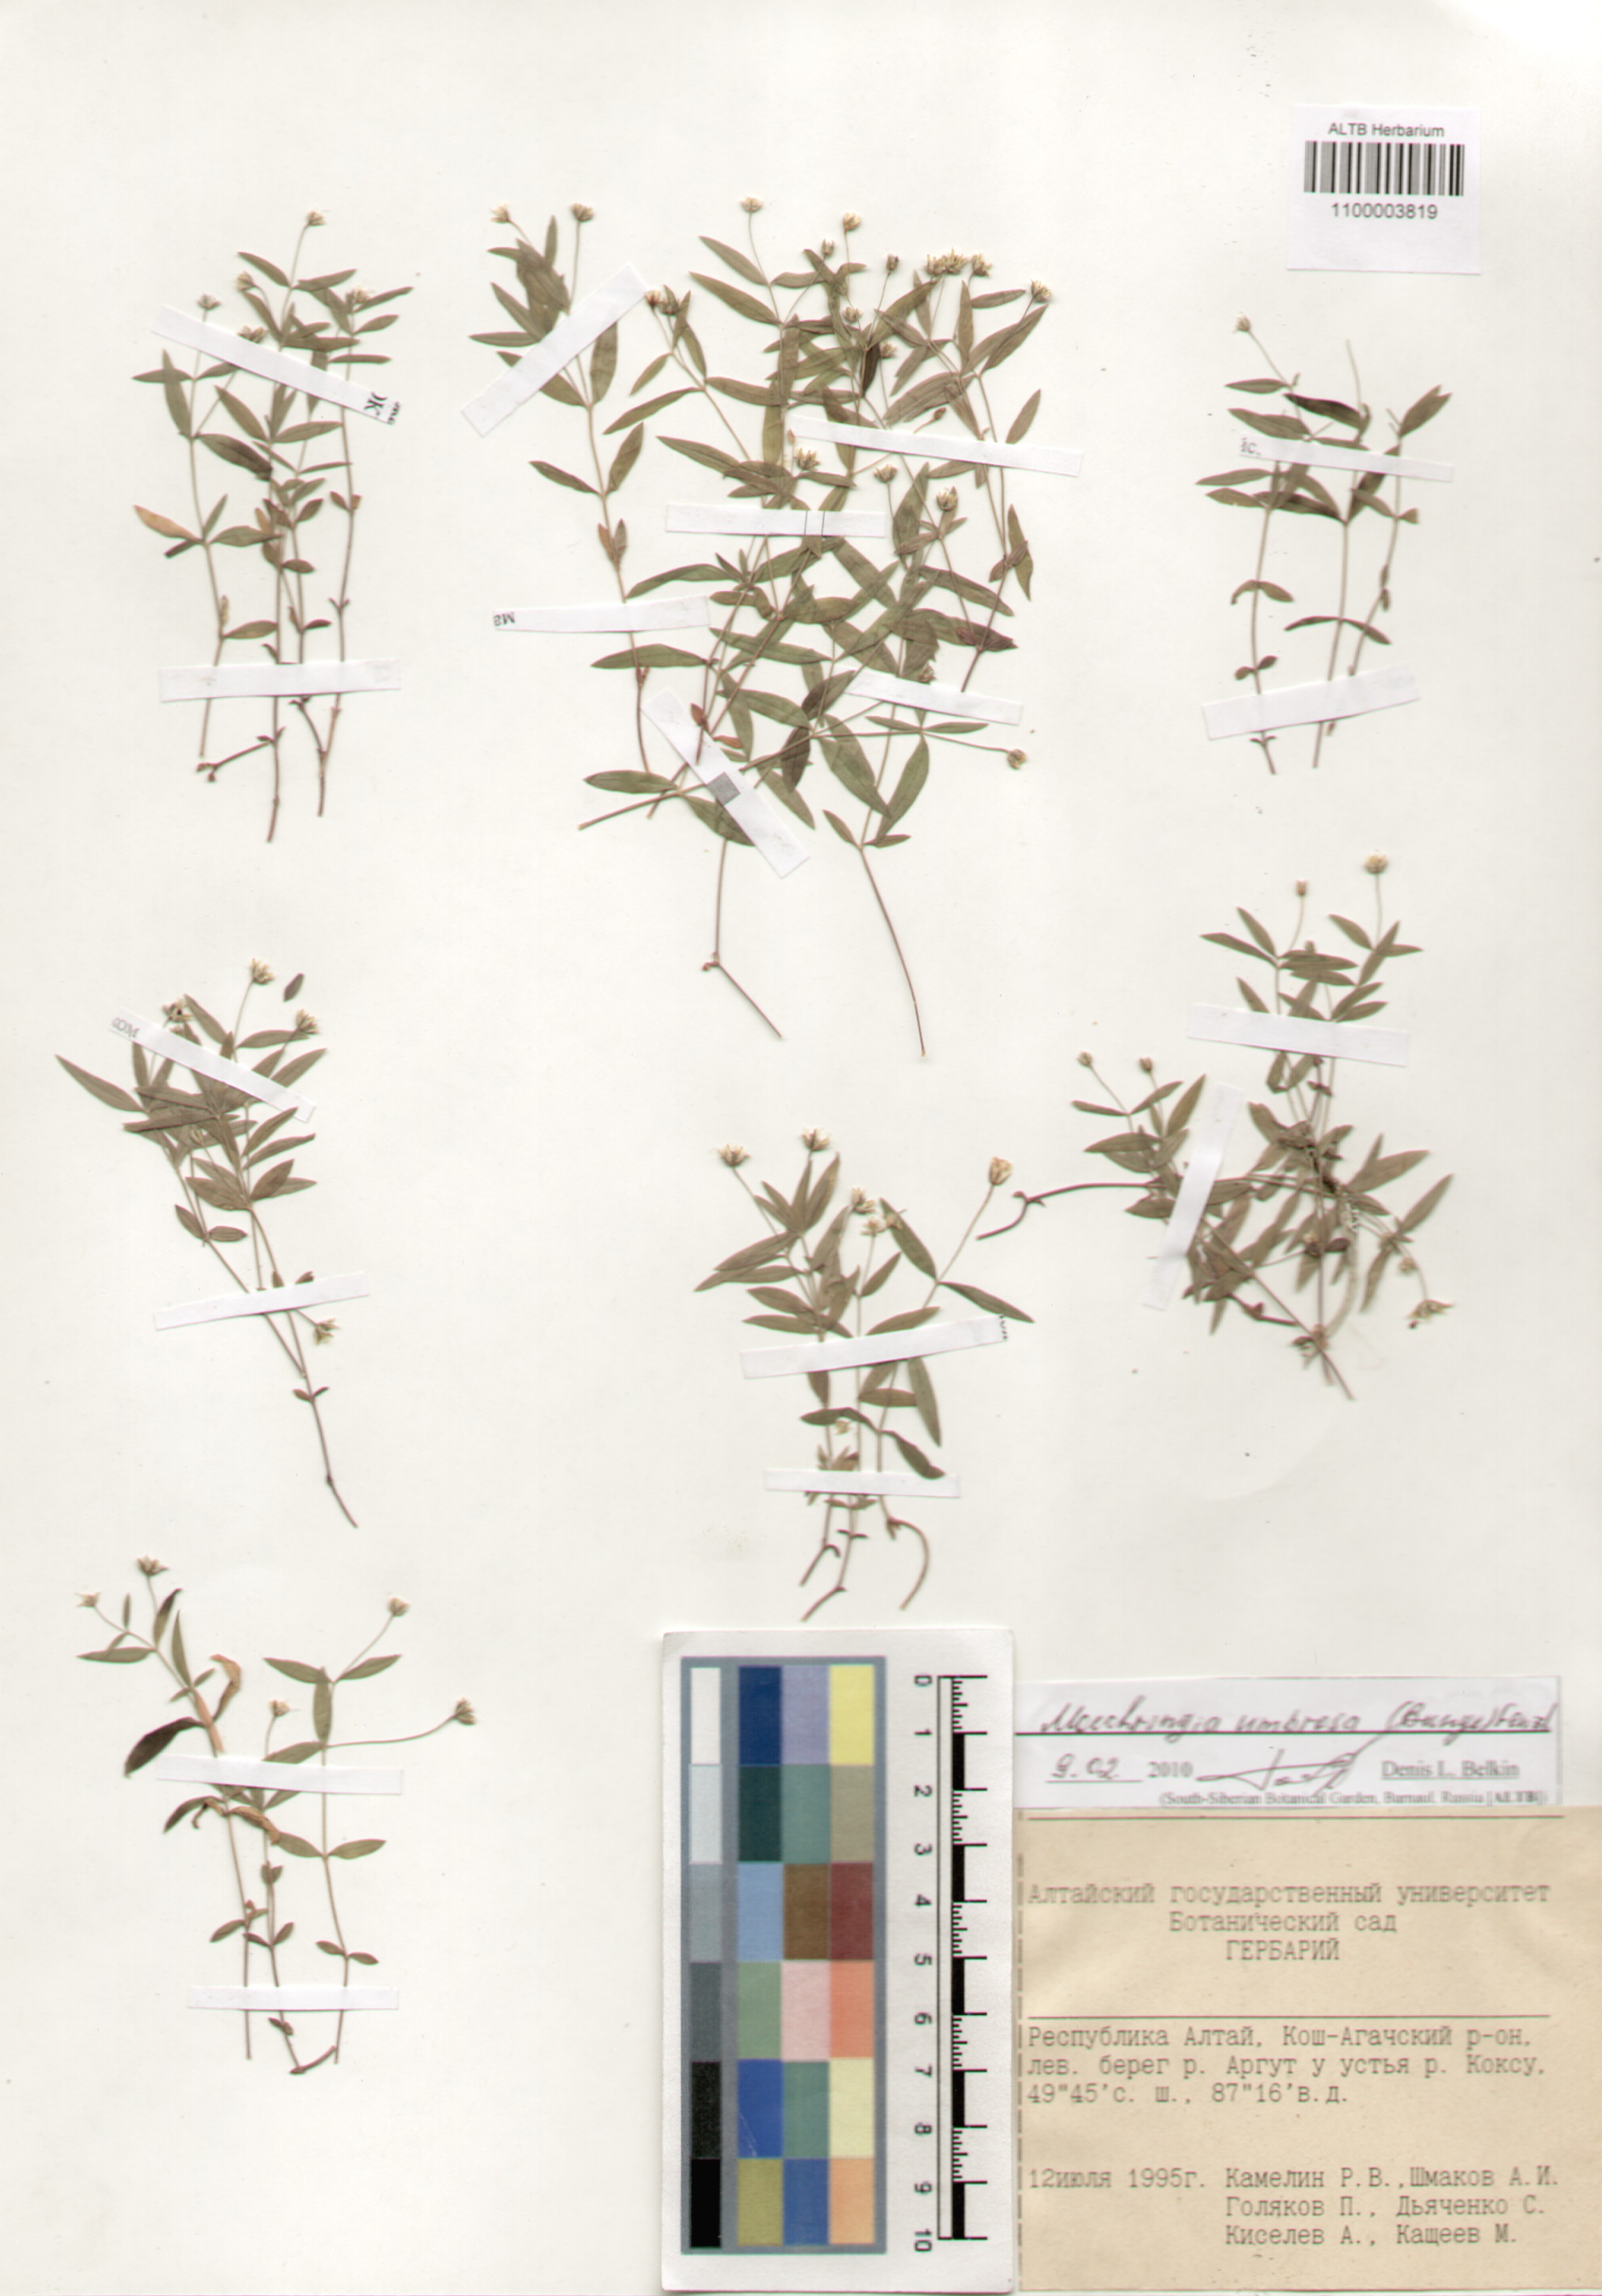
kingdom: Plantae
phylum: Tracheophyta
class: Magnoliopsida
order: Caryophyllales
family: Caryophyllaceae
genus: Moehringia
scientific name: Moehringia umbrosa
